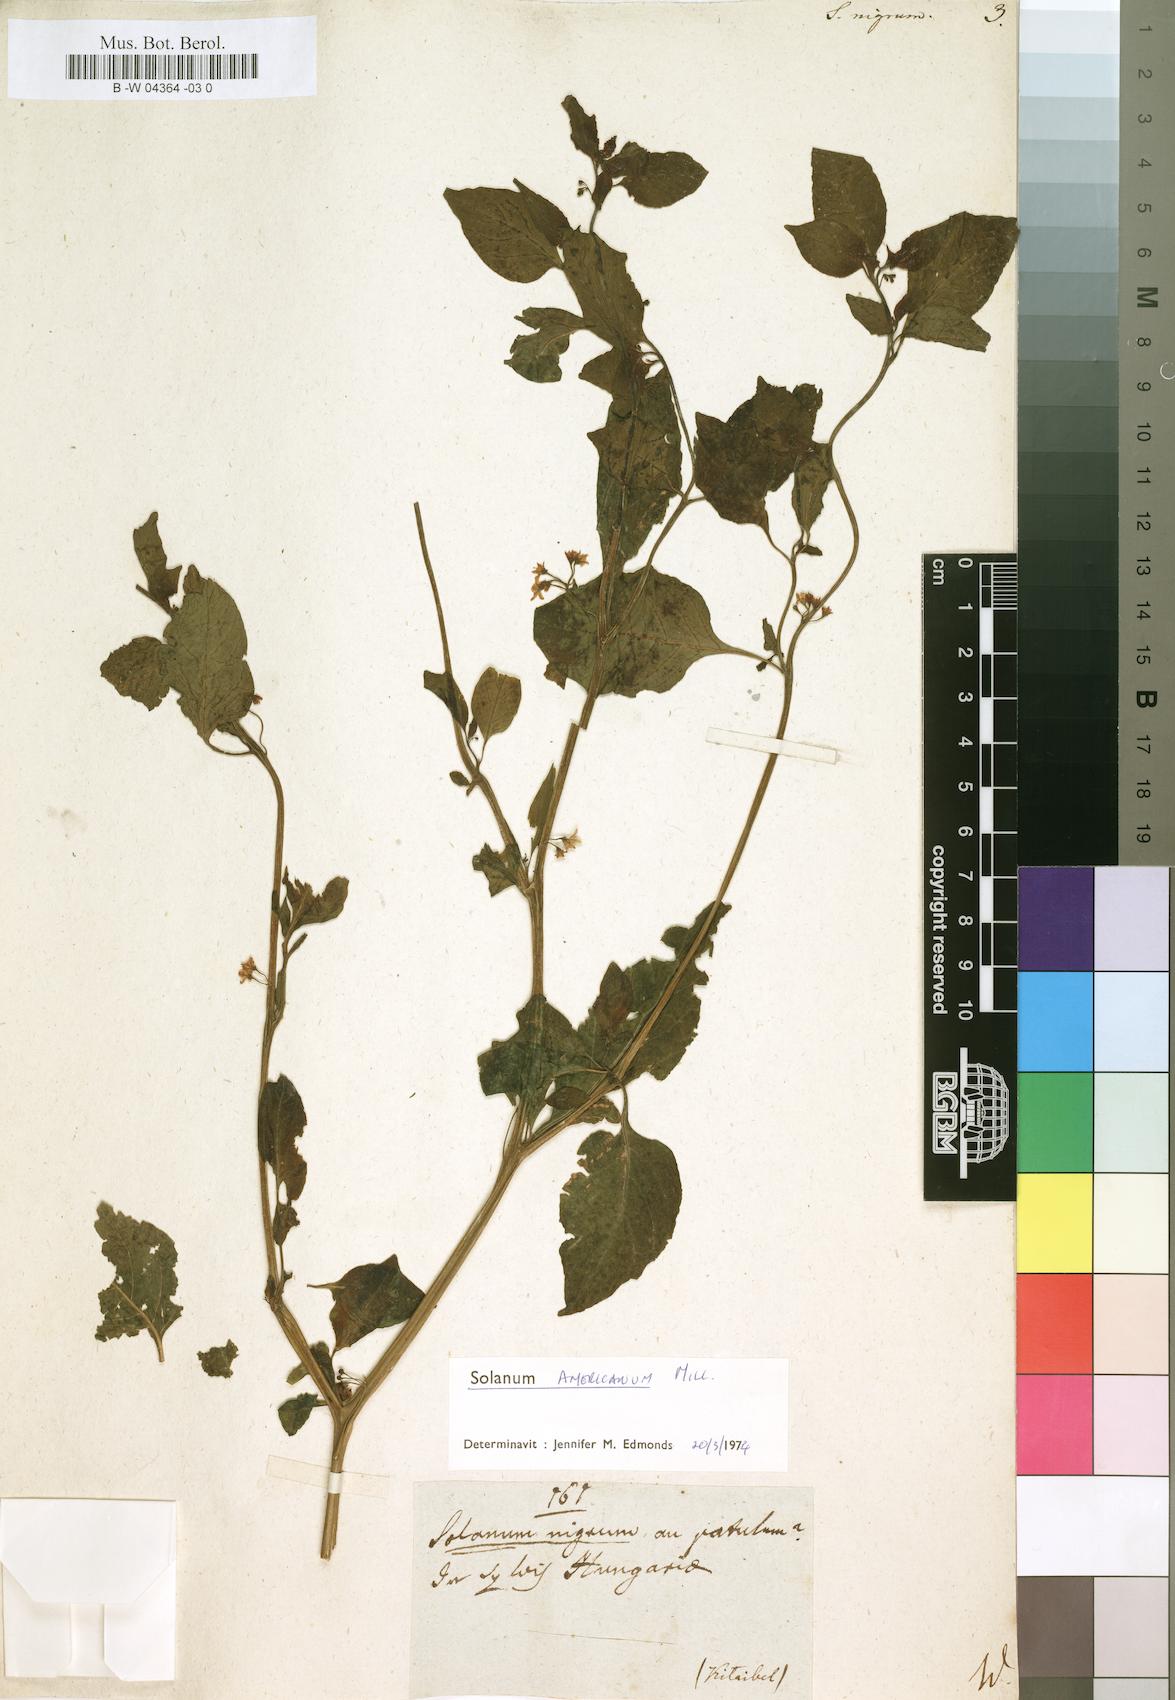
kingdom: Plantae
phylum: Tracheophyta
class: Magnoliopsida
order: Solanales
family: Solanaceae
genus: Solanum
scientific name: Solanum nigrum
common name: Black nightshade
